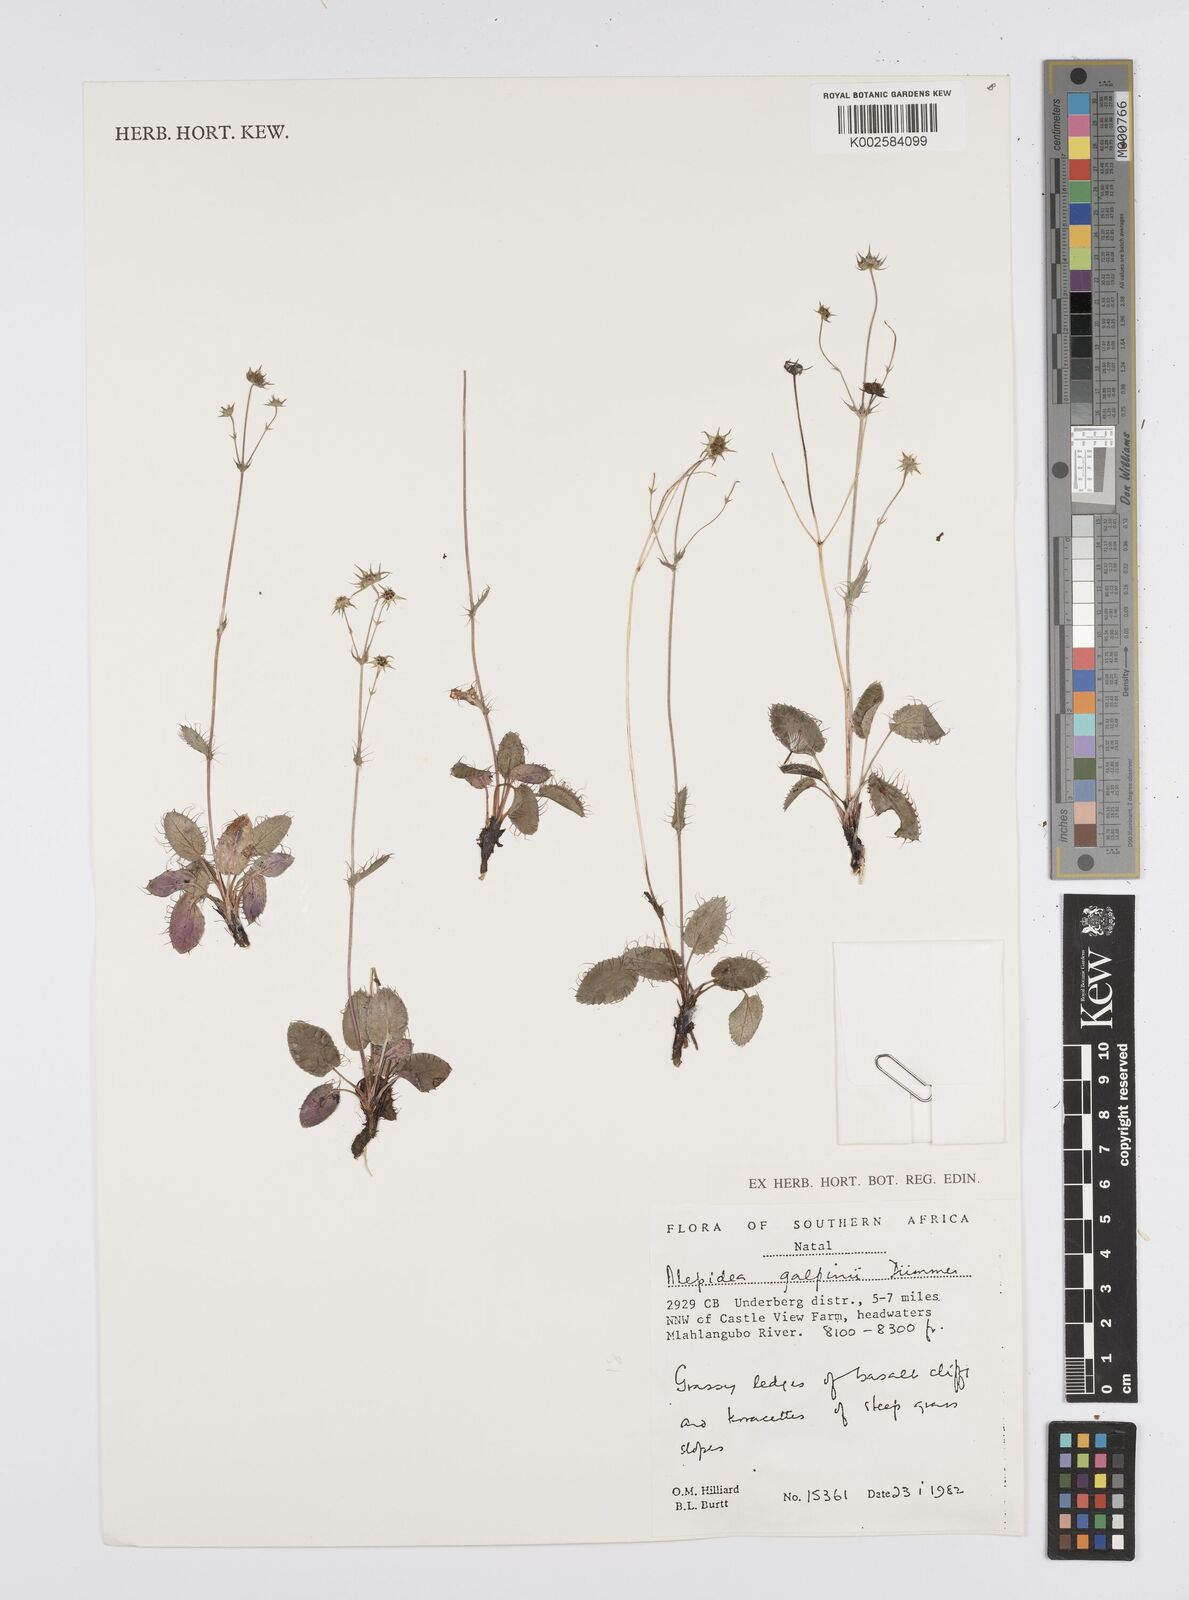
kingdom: Plantae
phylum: Tracheophyta
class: Magnoliopsida
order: Apiales
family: Apiaceae
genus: Alepidea
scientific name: Alepidea galpinii
